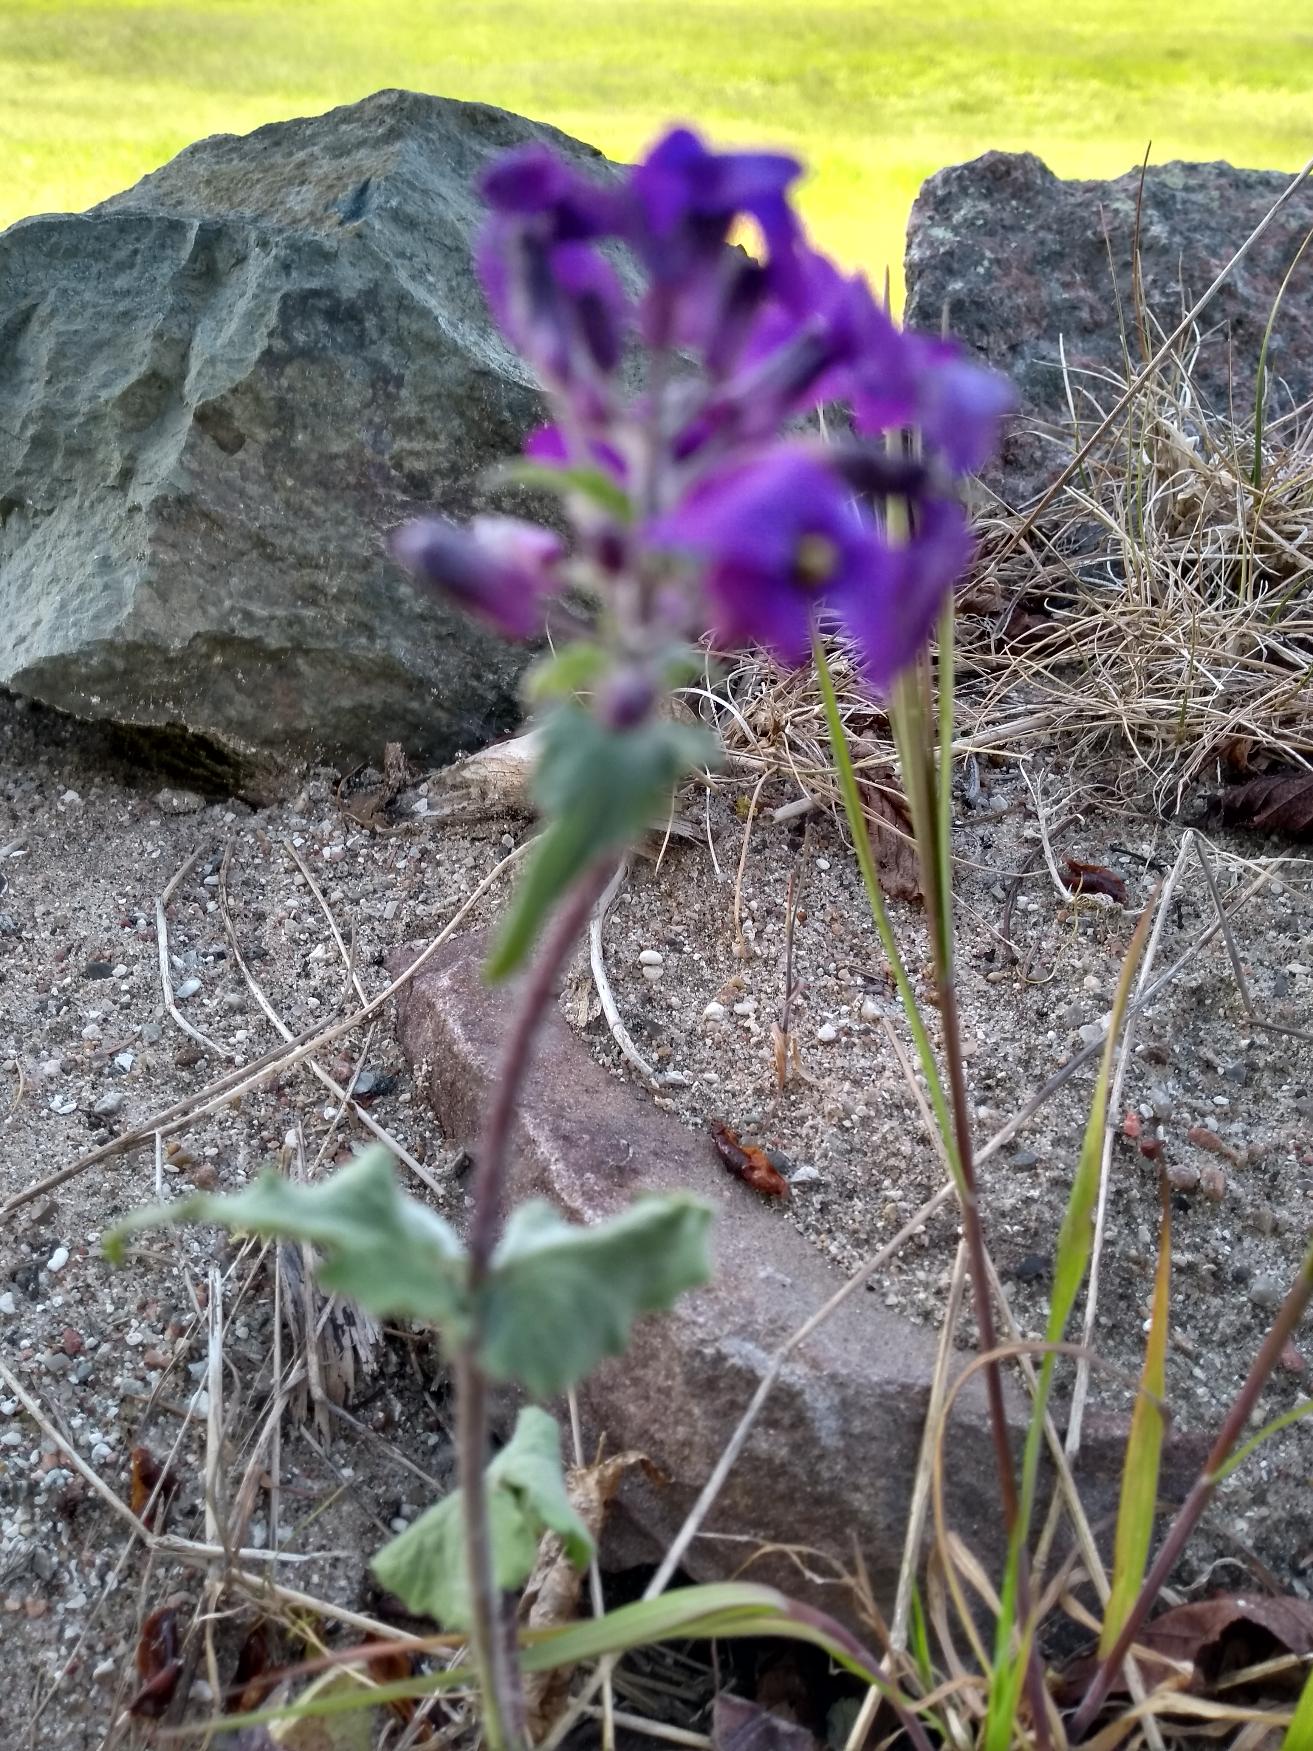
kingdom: Plantae
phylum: Tracheophyta
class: Magnoliopsida
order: Brassicales
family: Brassicaceae
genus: Lunaria
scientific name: Lunaria annua
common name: Judaspenge
